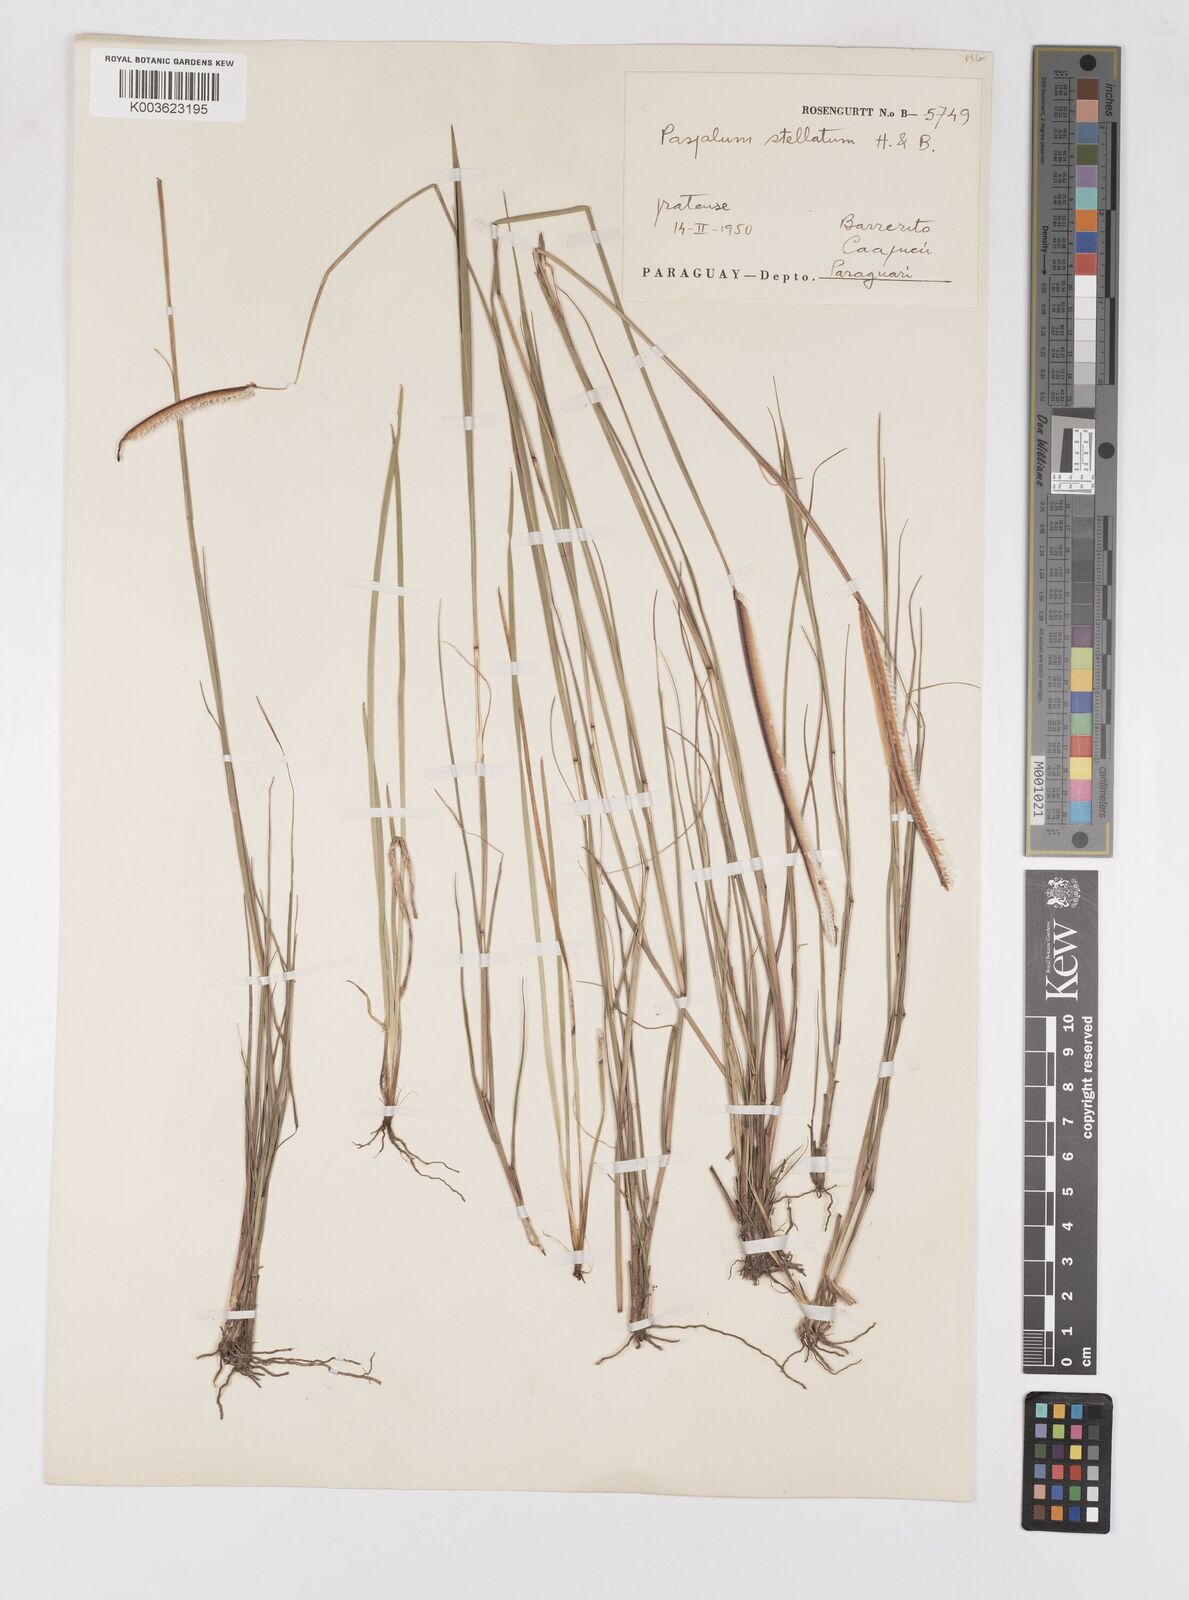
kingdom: Plantae
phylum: Tracheophyta
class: Liliopsida
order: Poales
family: Poaceae
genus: Paspalum
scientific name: Paspalum stellatum
